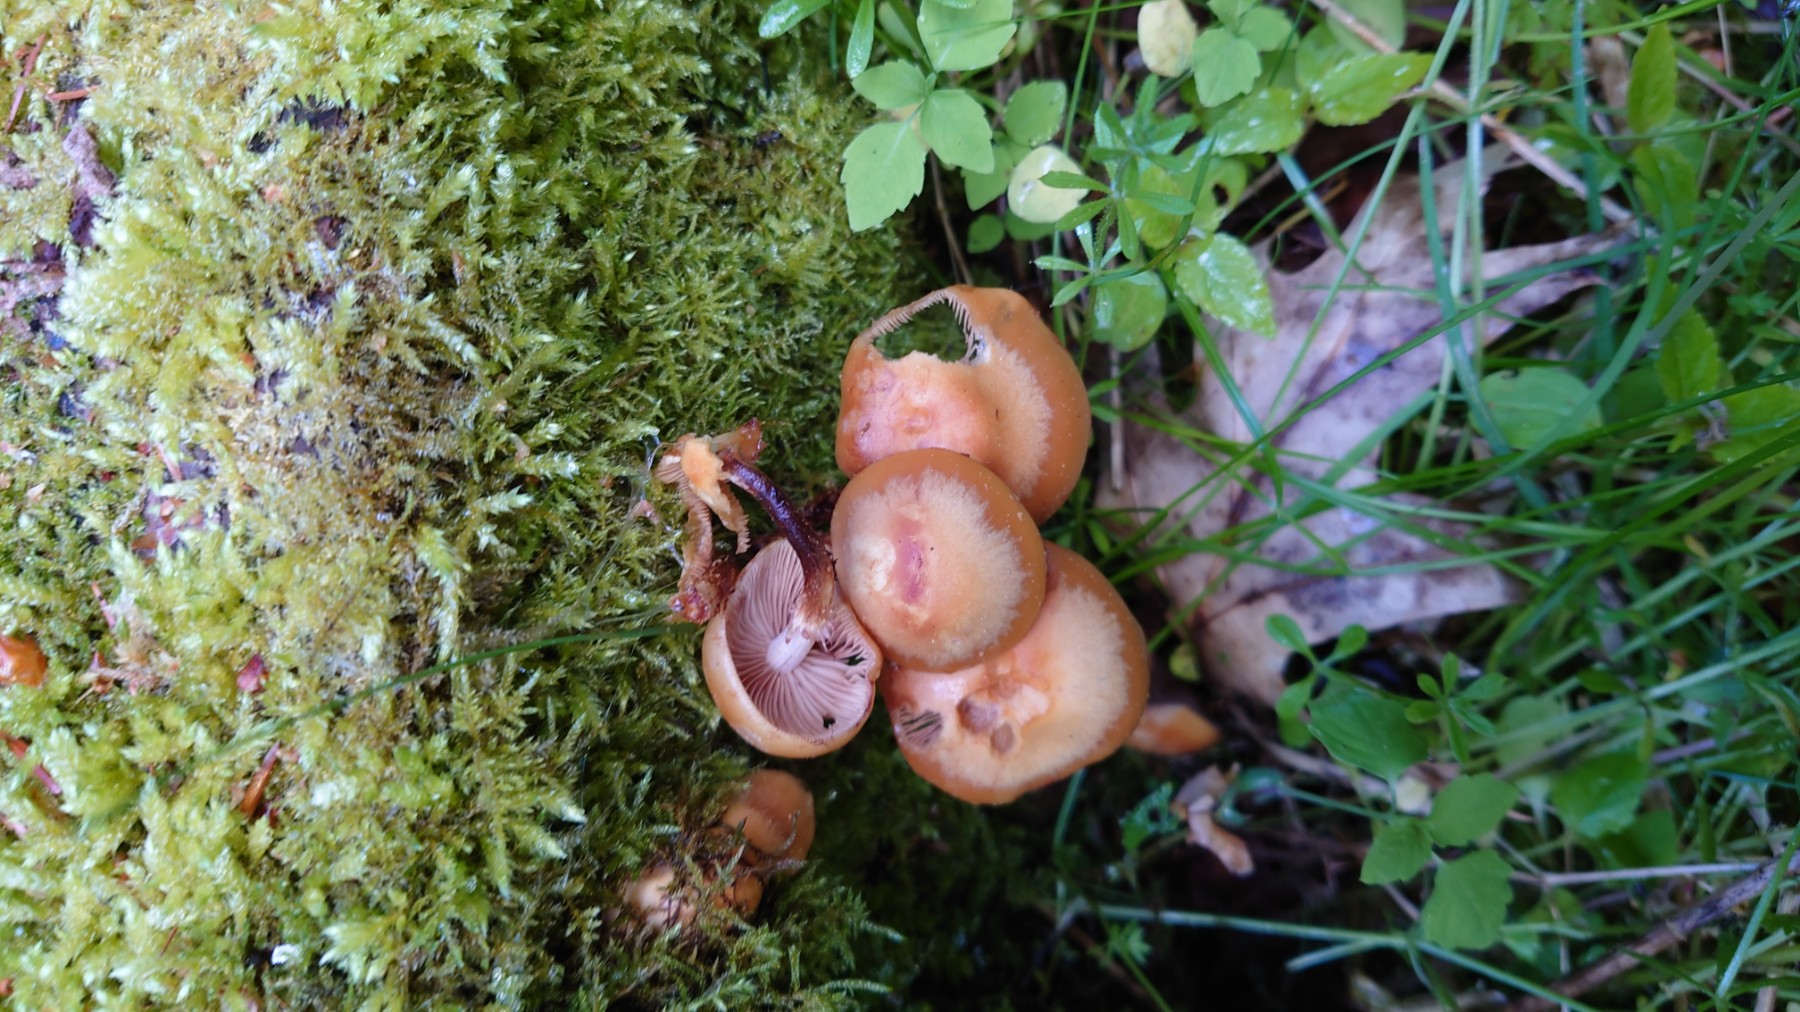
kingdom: Fungi
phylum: Basidiomycota
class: Agaricomycetes
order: Agaricales
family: Strophariaceae
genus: Kuehneromyces
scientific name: Kuehneromyces mutabilis
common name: foranderlig skælhat
